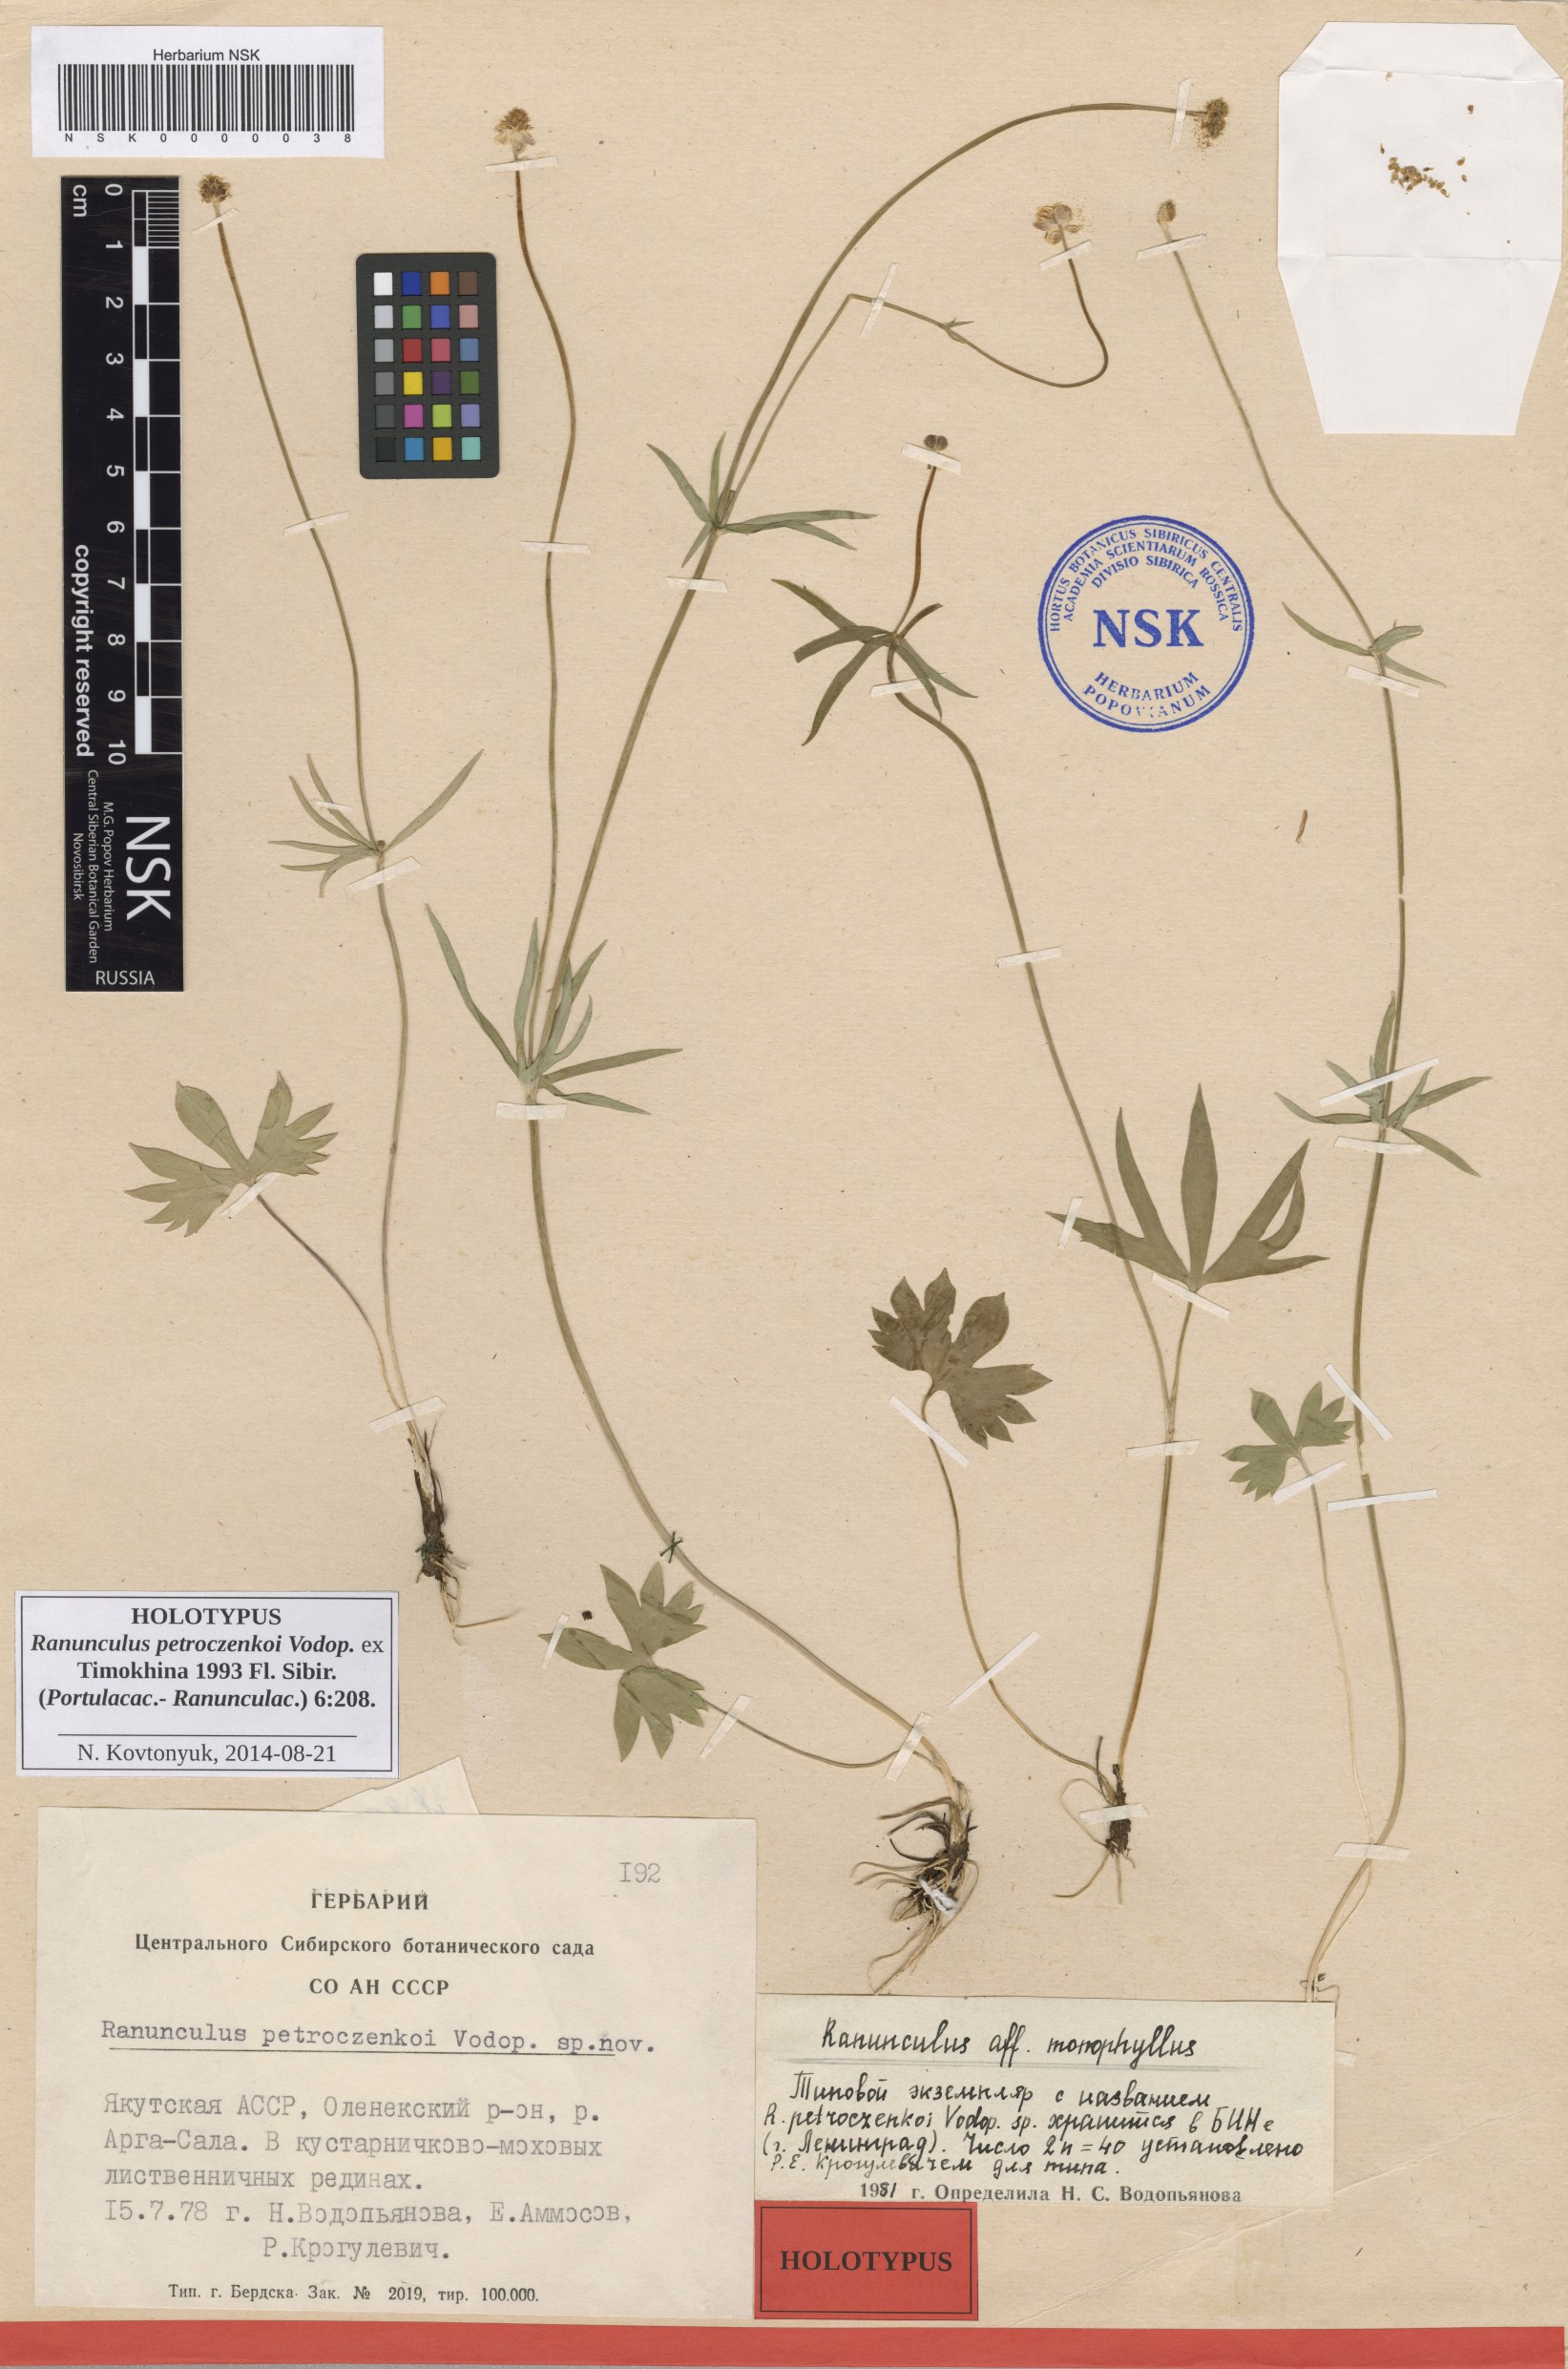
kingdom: Plantae
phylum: Tracheophyta
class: Magnoliopsida
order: Ranunculales
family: Ranunculaceae
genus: Ranunculus
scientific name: Ranunculus petroczenkoi
